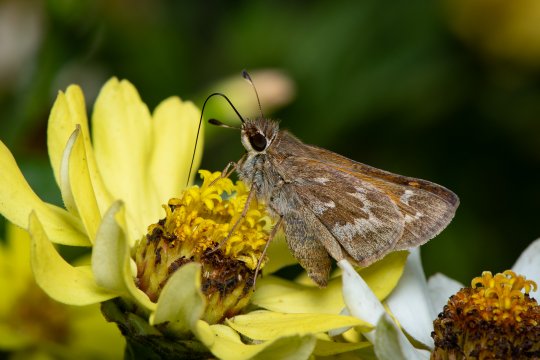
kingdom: Animalia
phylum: Arthropoda
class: Insecta
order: Lepidoptera
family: Hesperiidae
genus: Atalopedes
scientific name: Atalopedes campestris
